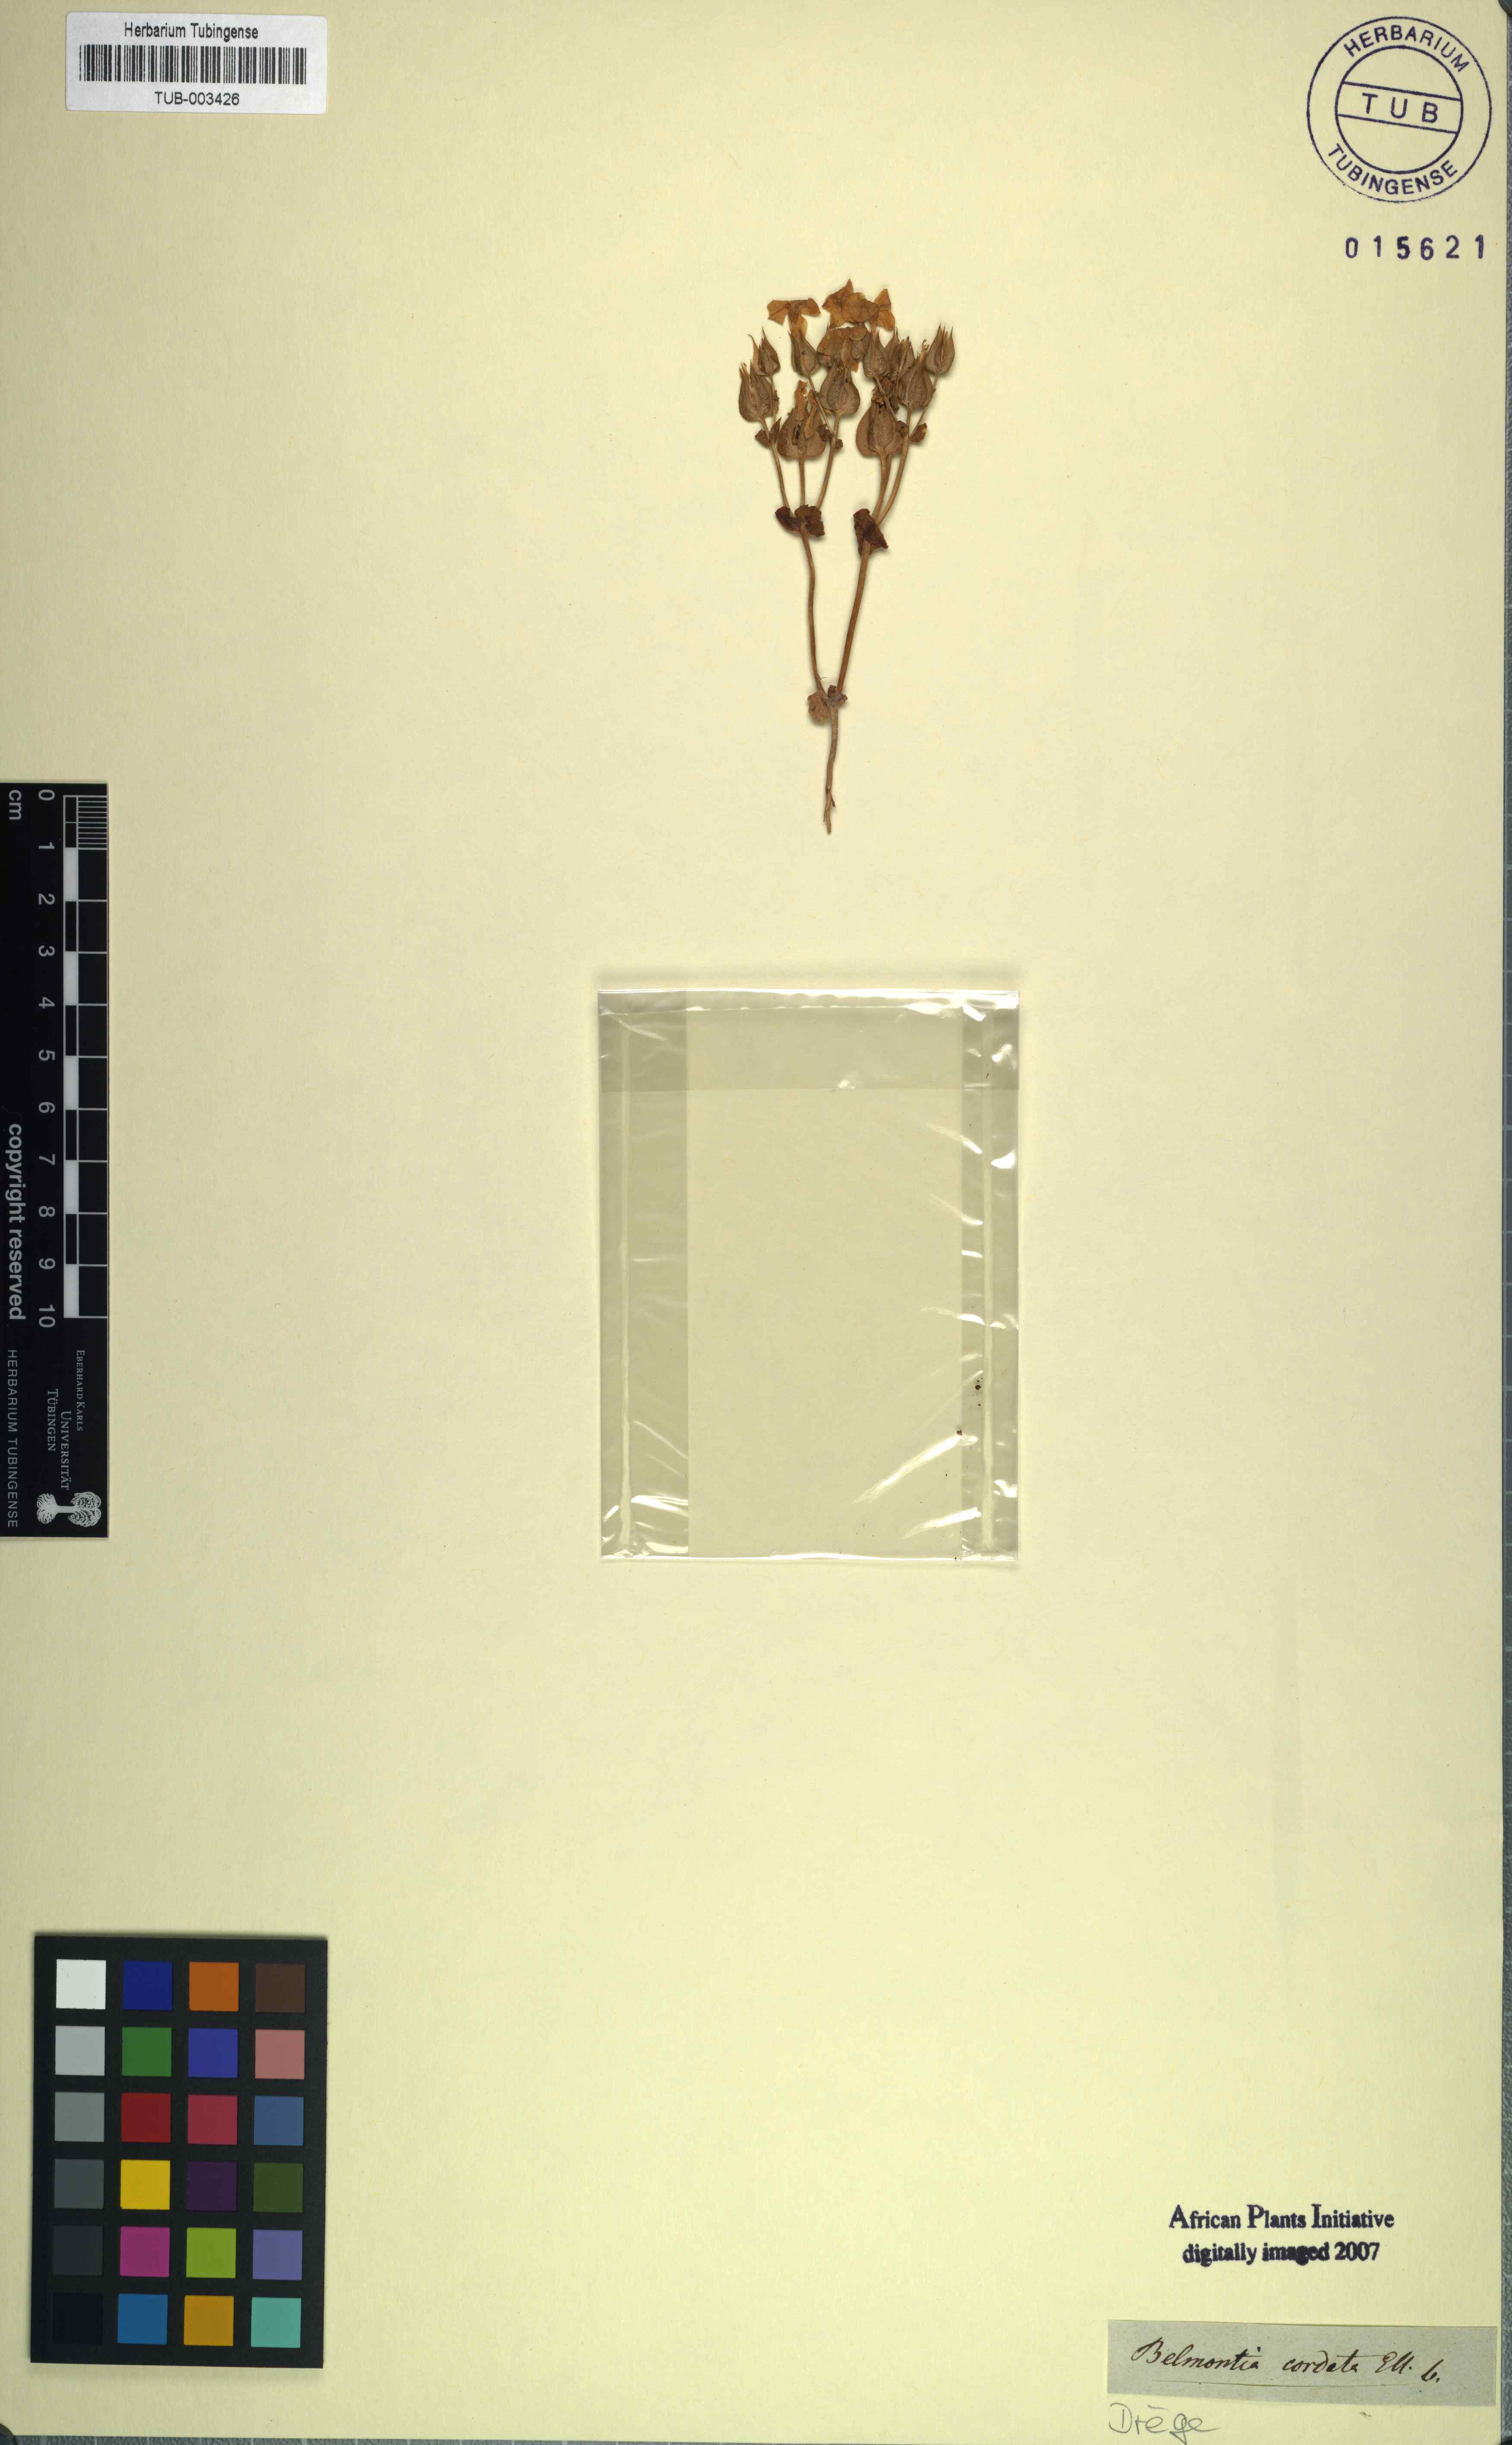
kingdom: Plantae
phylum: Tracheophyta
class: Magnoliopsida
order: Gentianales
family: Gentianaceae
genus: Sebaea
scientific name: Sebaea exacoides
